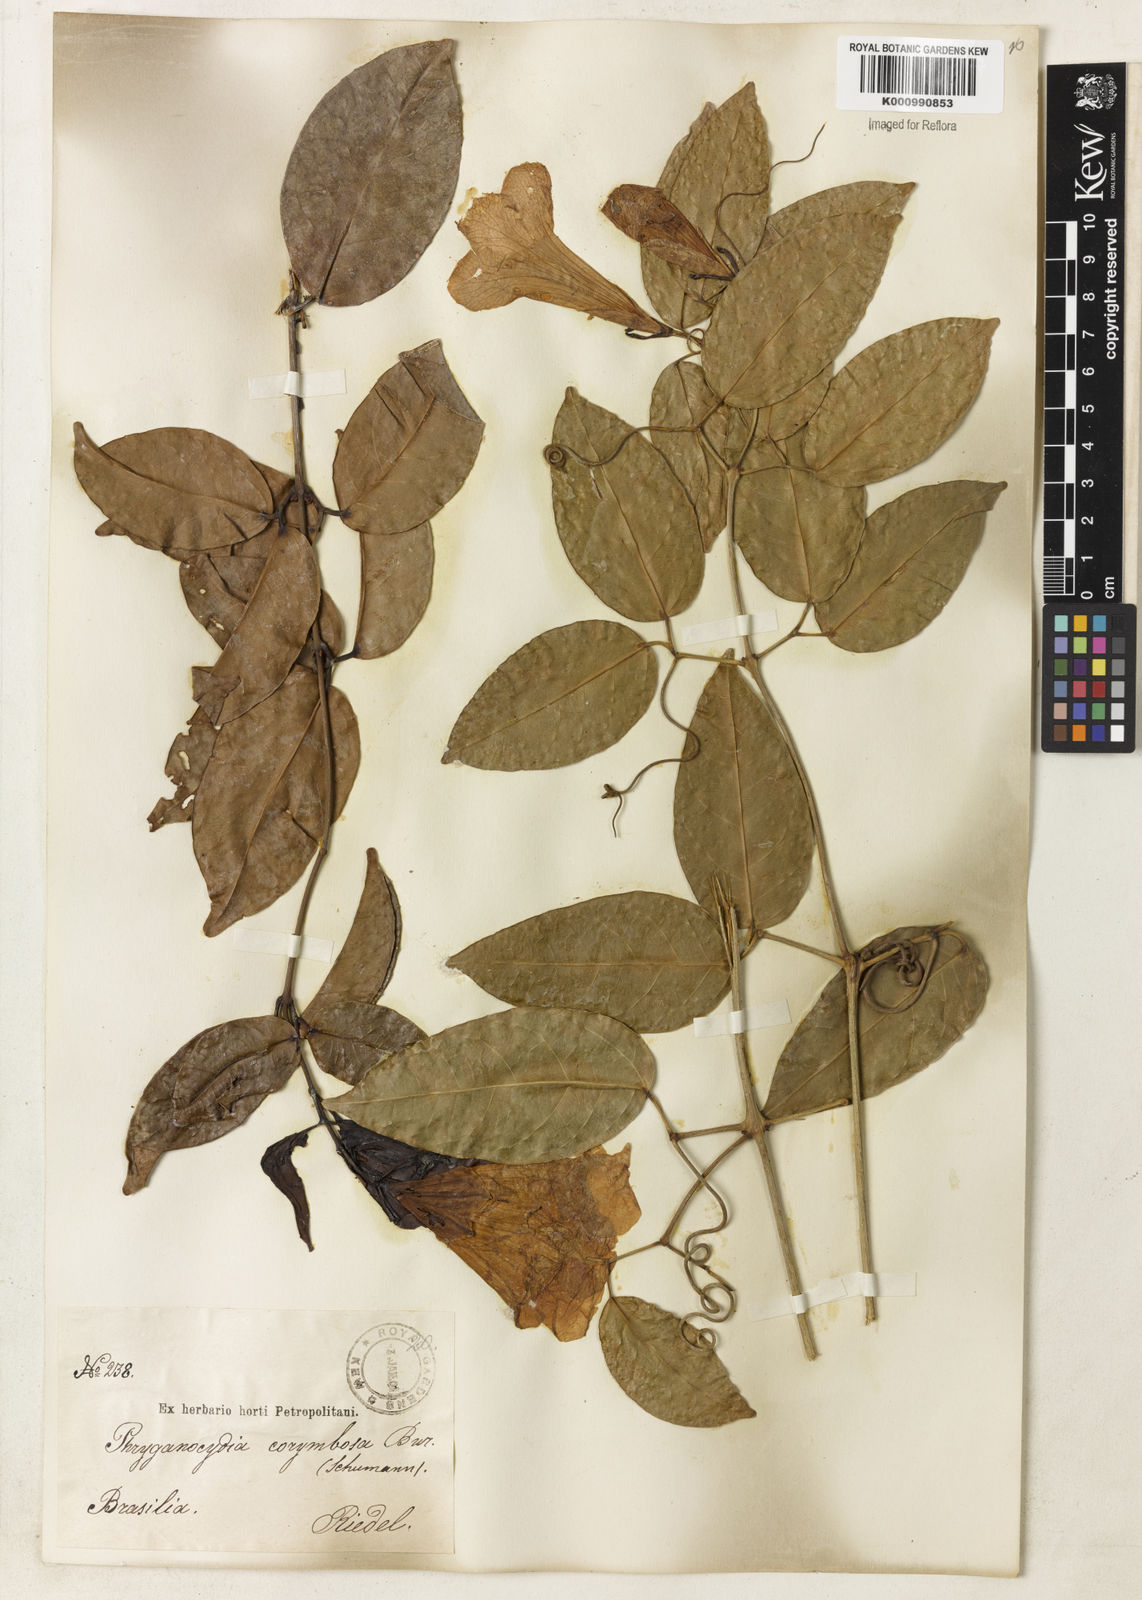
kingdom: Plantae
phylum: Tracheophyta
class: Magnoliopsida
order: Lamiales
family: Bignoniaceae
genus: Bignonia
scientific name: Bignonia corymbosa
